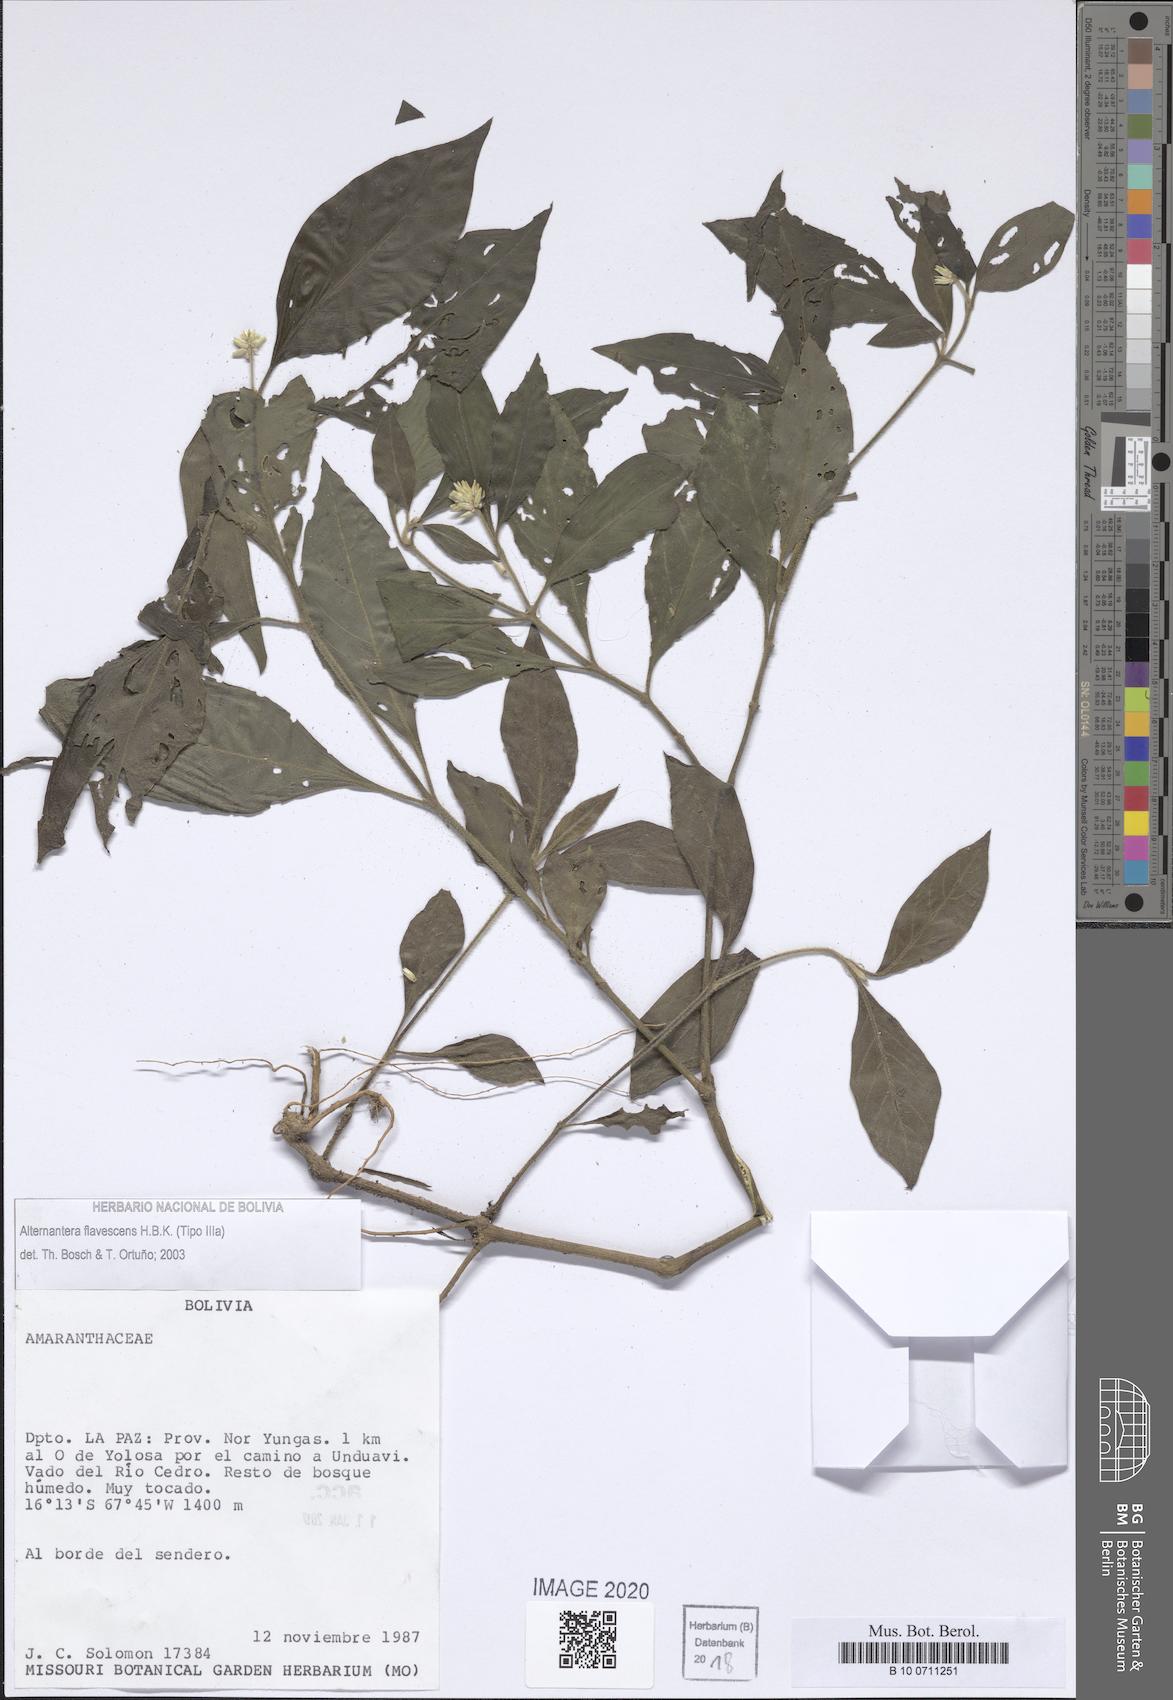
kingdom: Plantae
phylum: Tracheophyta
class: Magnoliopsida
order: Caryophyllales
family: Amaranthaceae
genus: Alternanthera
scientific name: Alternanthera flavescens
